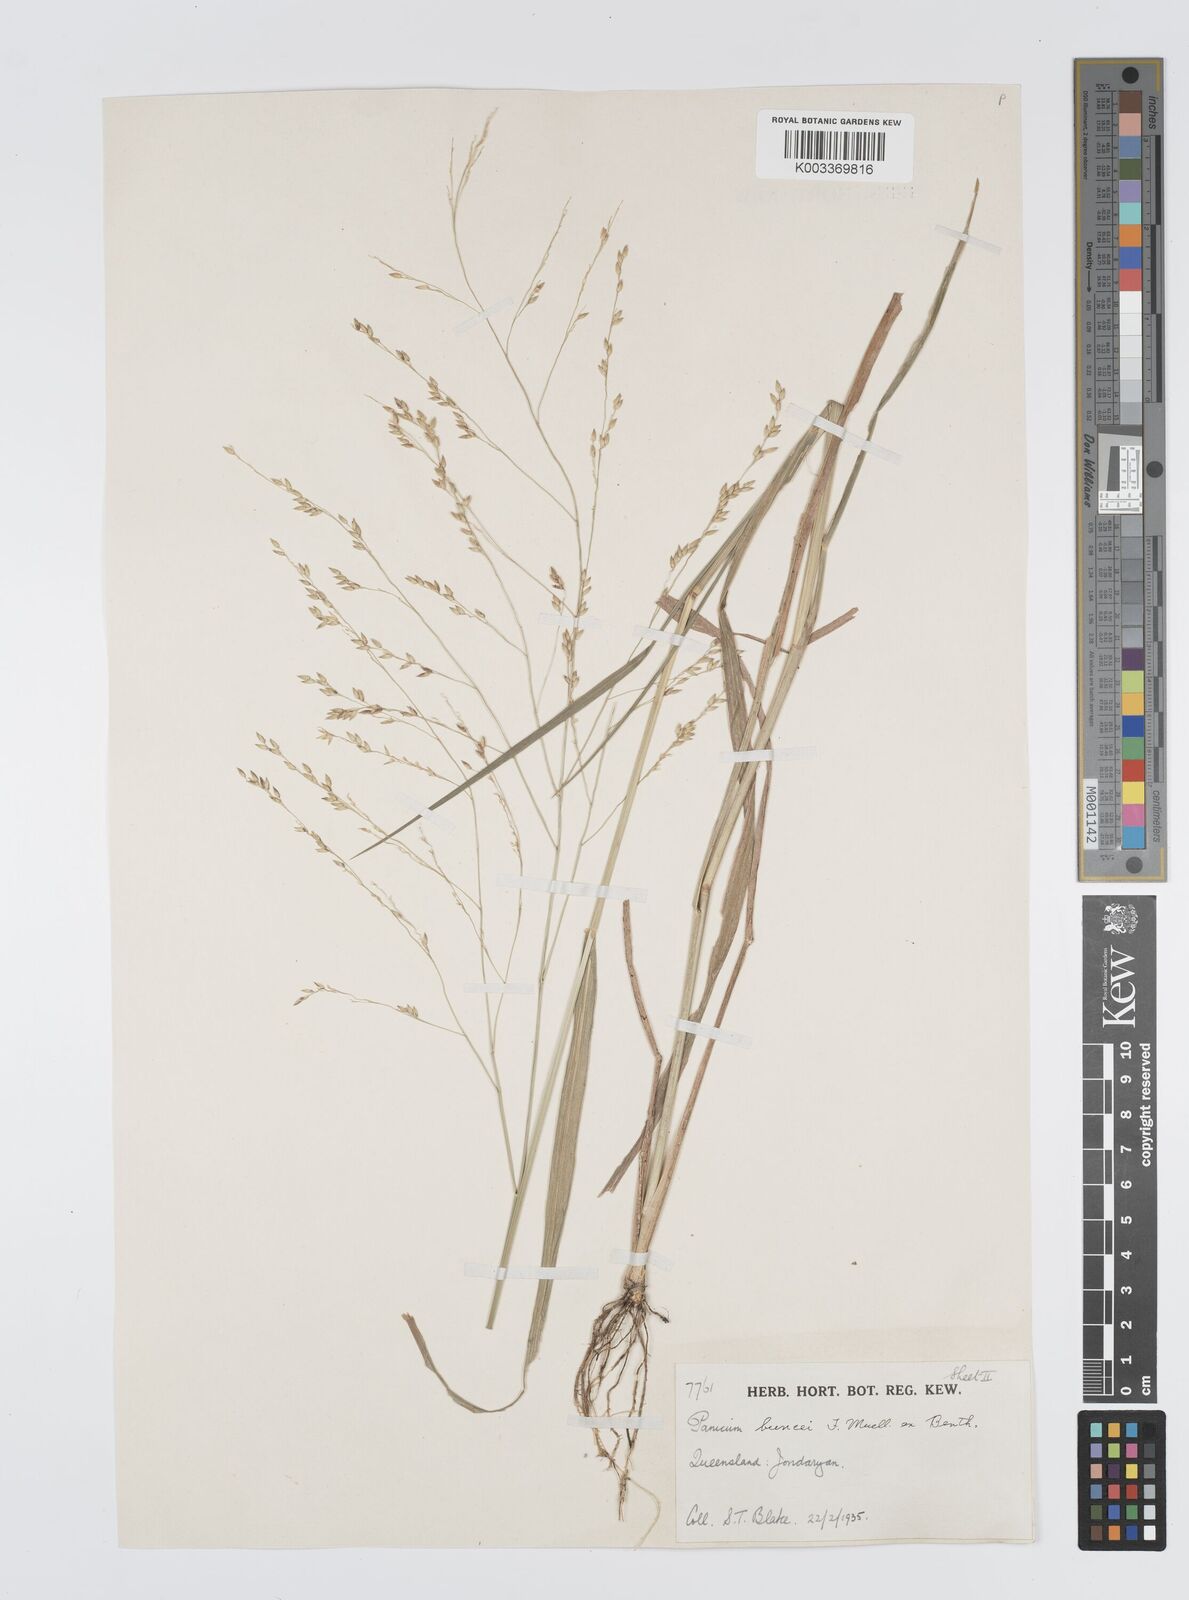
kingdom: Plantae
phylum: Tracheophyta
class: Liliopsida
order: Poales
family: Poaceae
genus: Panicum
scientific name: Panicum buncei
